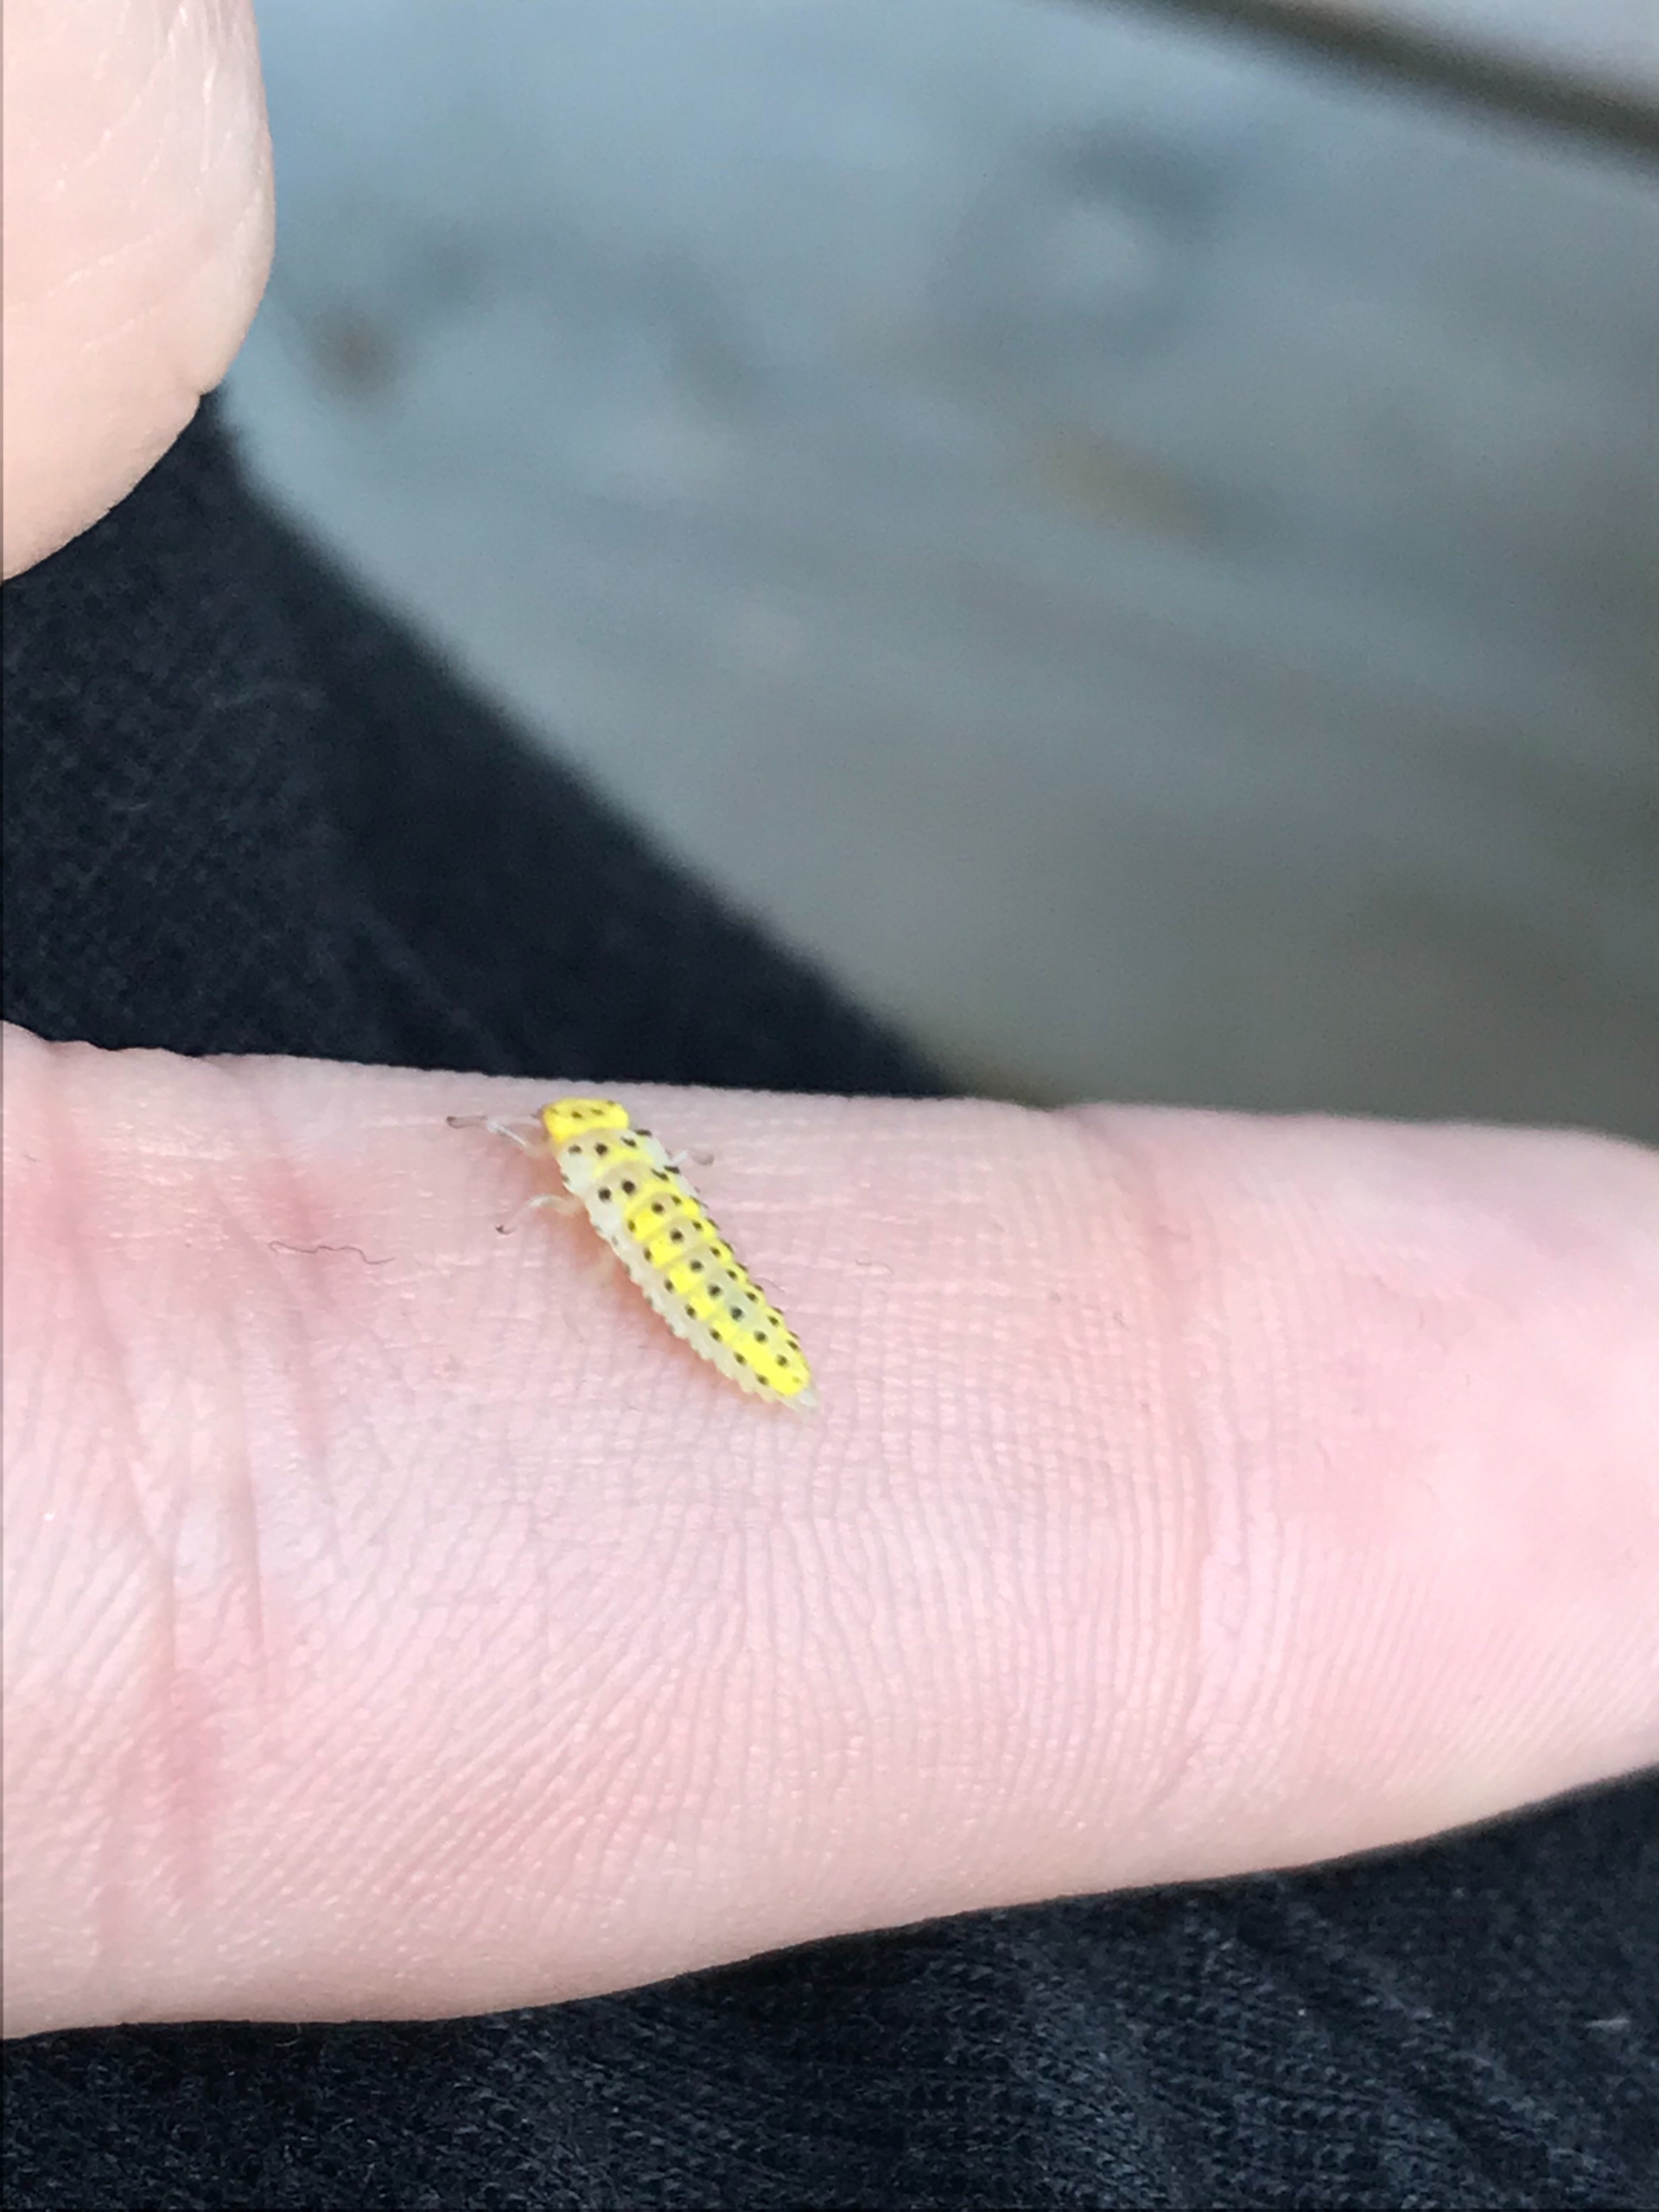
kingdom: Animalia
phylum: Arthropoda
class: Insecta
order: Coleoptera
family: Coccinellidae
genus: Halyzia
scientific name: Halyzia sedecimguttata
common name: Sekstenplettet mariehøne
